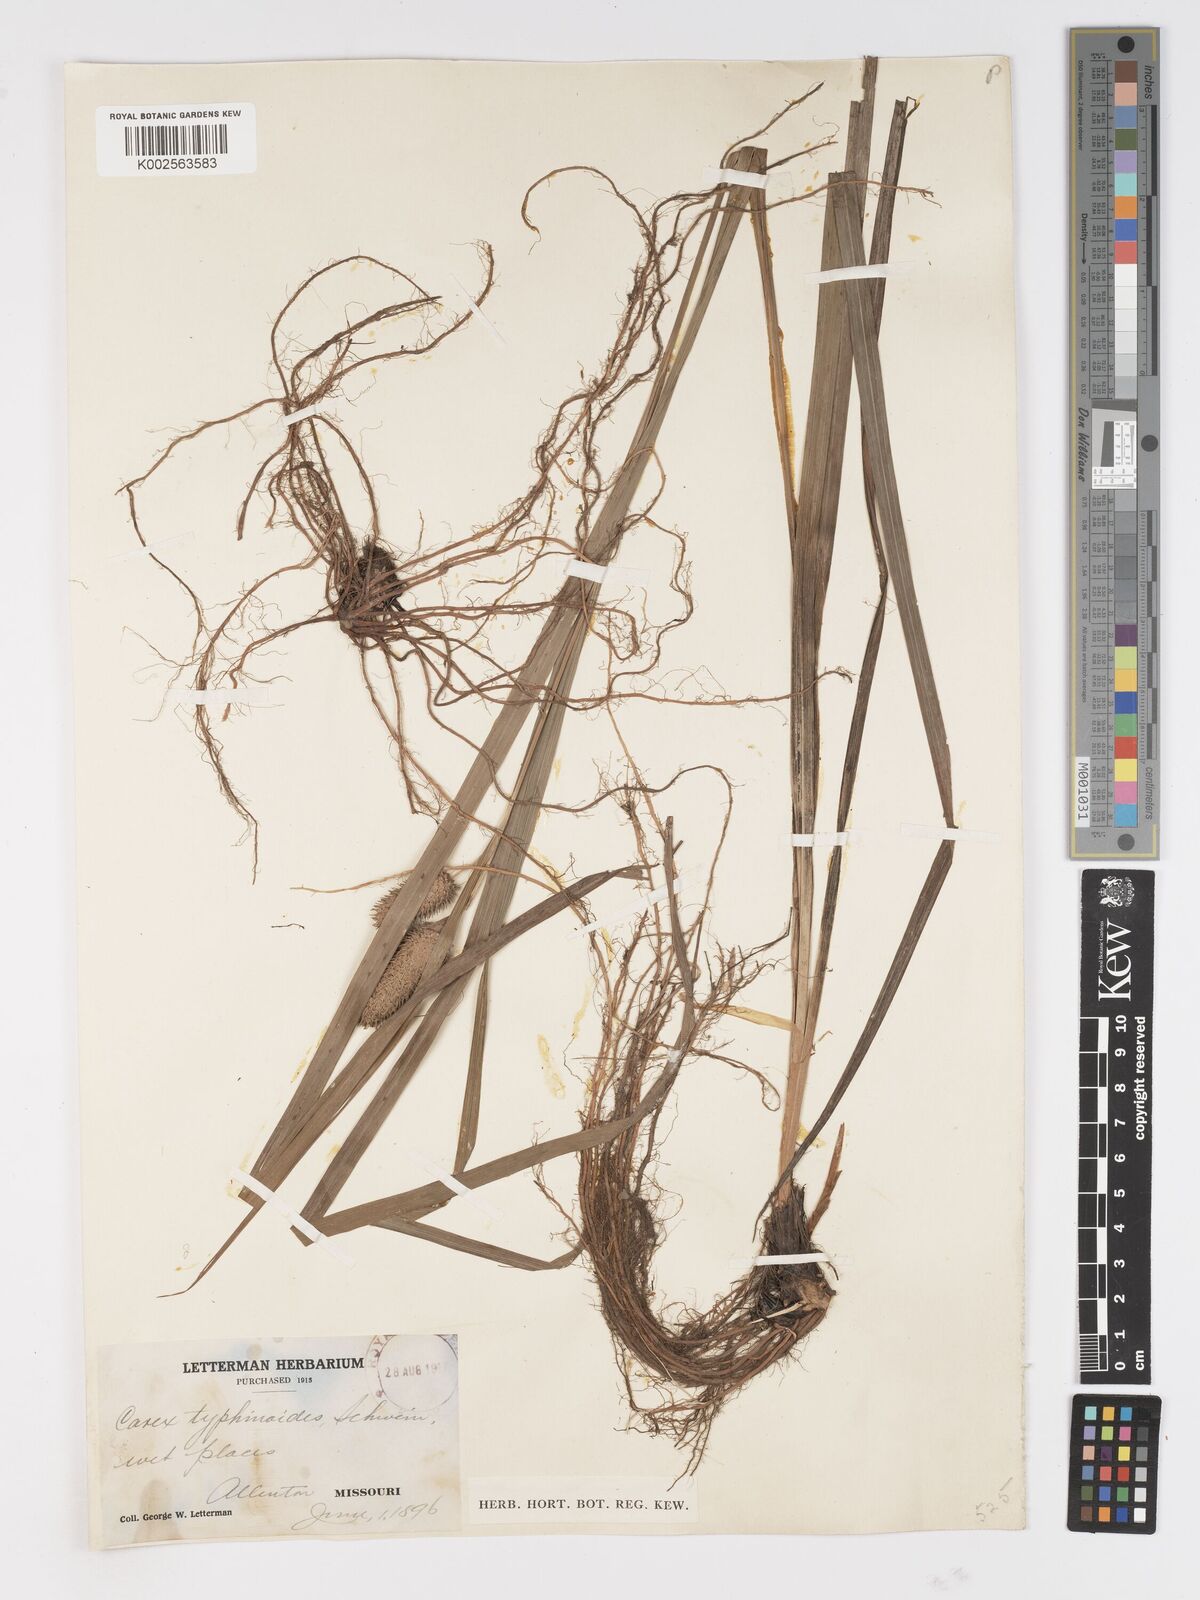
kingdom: Plantae
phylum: Tracheophyta
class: Liliopsida
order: Poales
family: Cyperaceae
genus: Carex
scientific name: Carex typhina
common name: Cattail sedge
